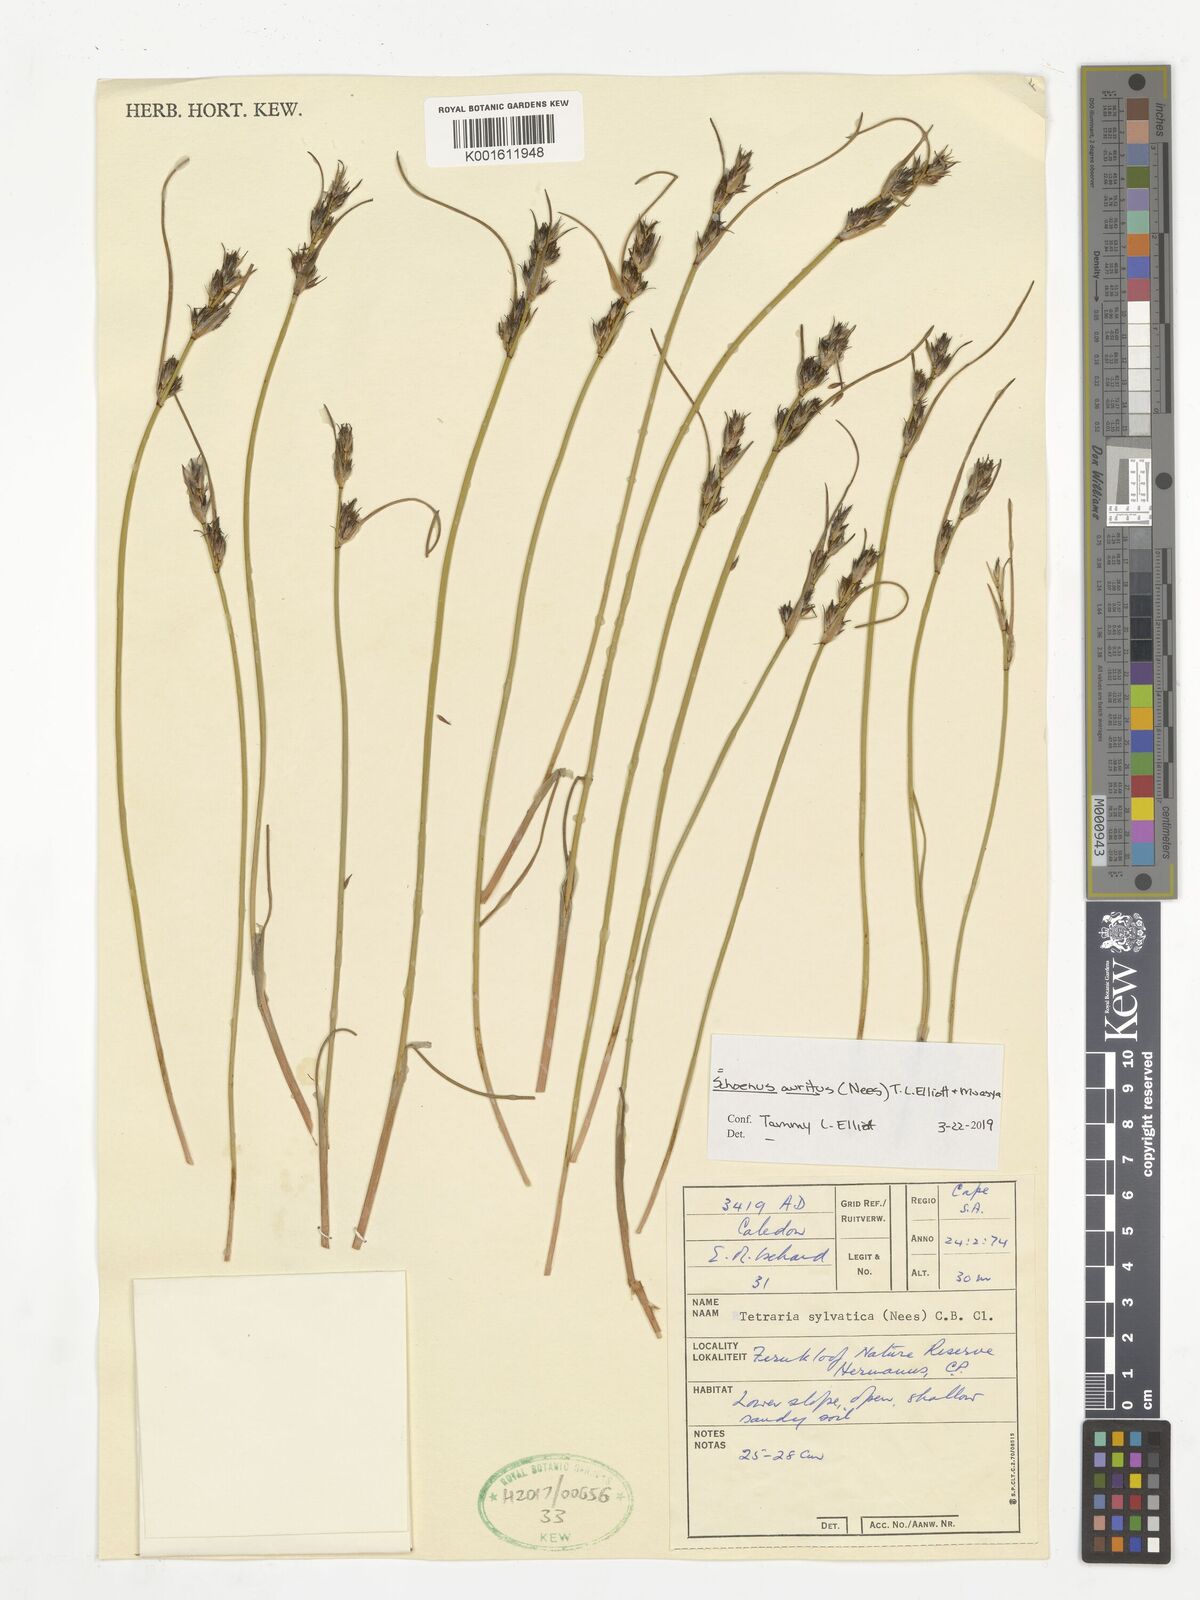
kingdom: Plantae
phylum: Tracheophyta
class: Liliopsida
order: Poales
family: Cyperaceae
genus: Schoenus
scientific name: Schoenus auritus
